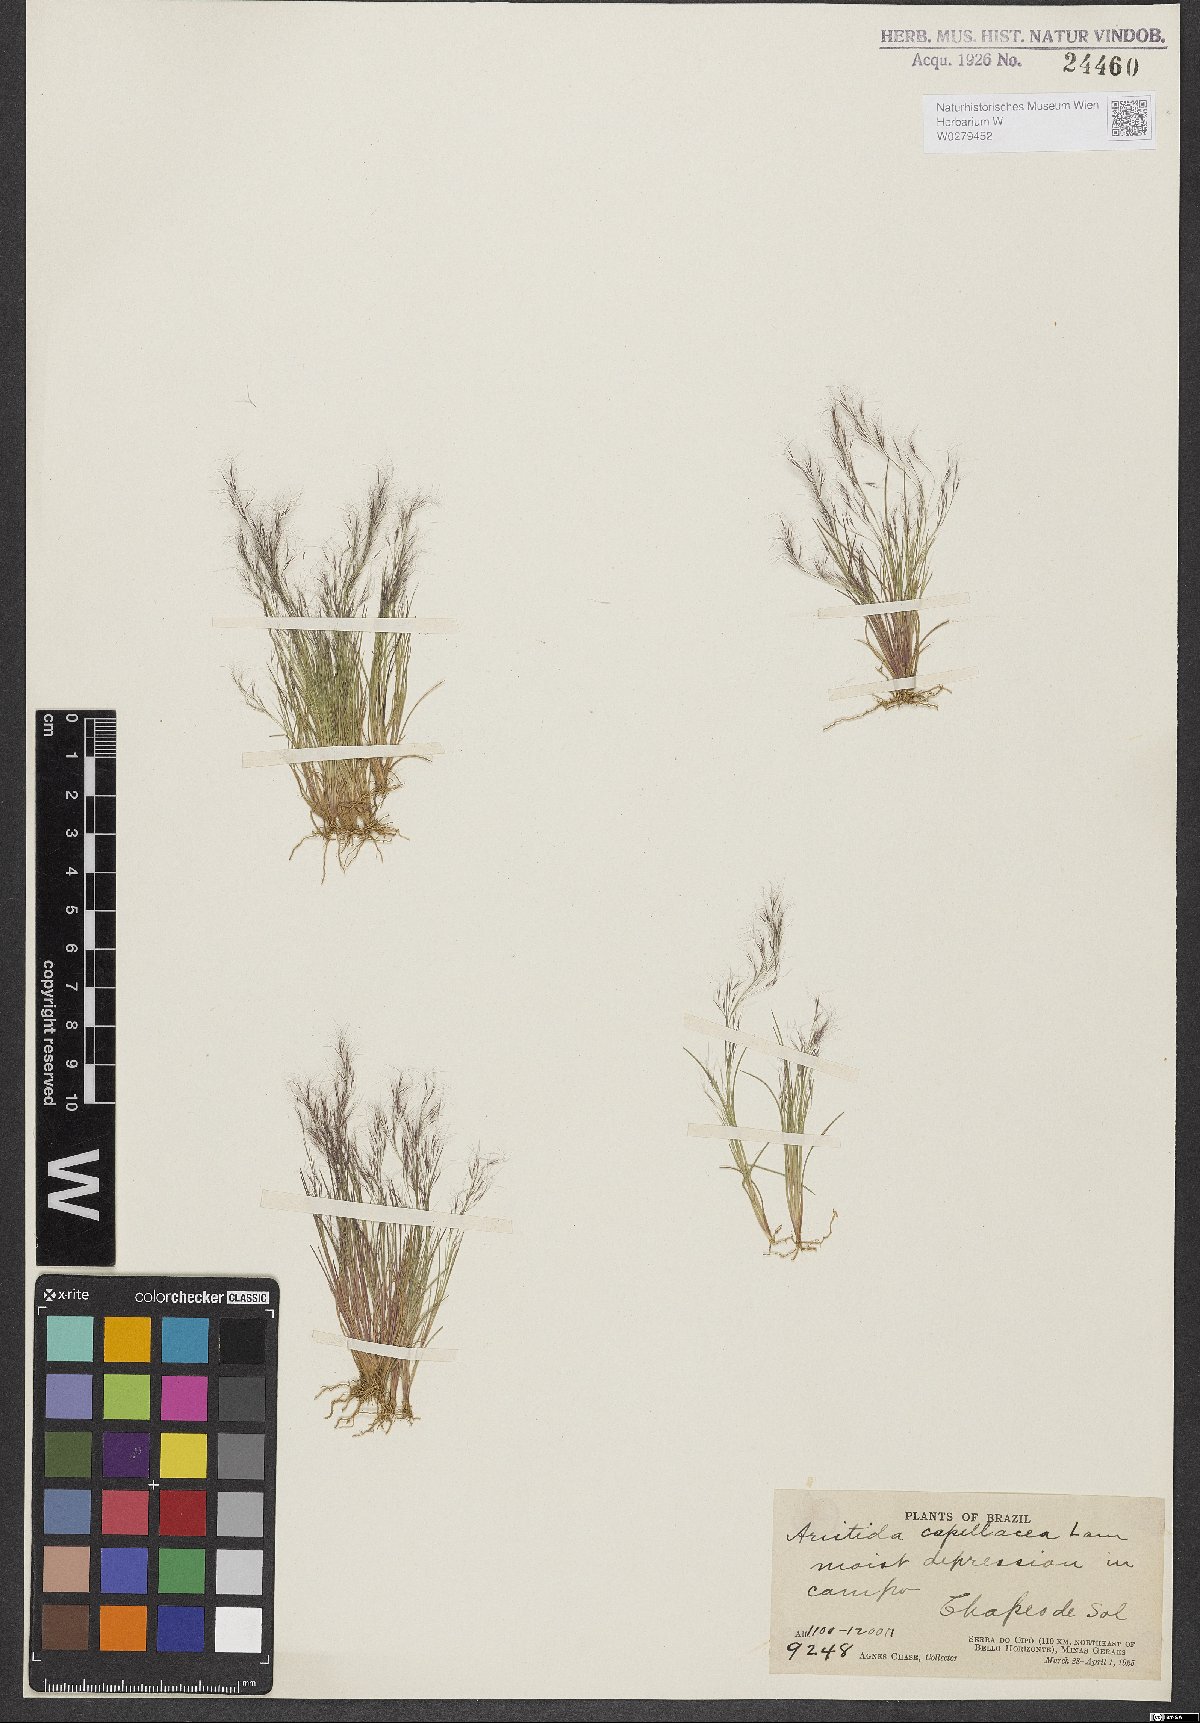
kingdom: Plantae
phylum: Tracheophyta
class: Liliopsida
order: Poales
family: Poaceae
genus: Aristida
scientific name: Aristida capillacea
